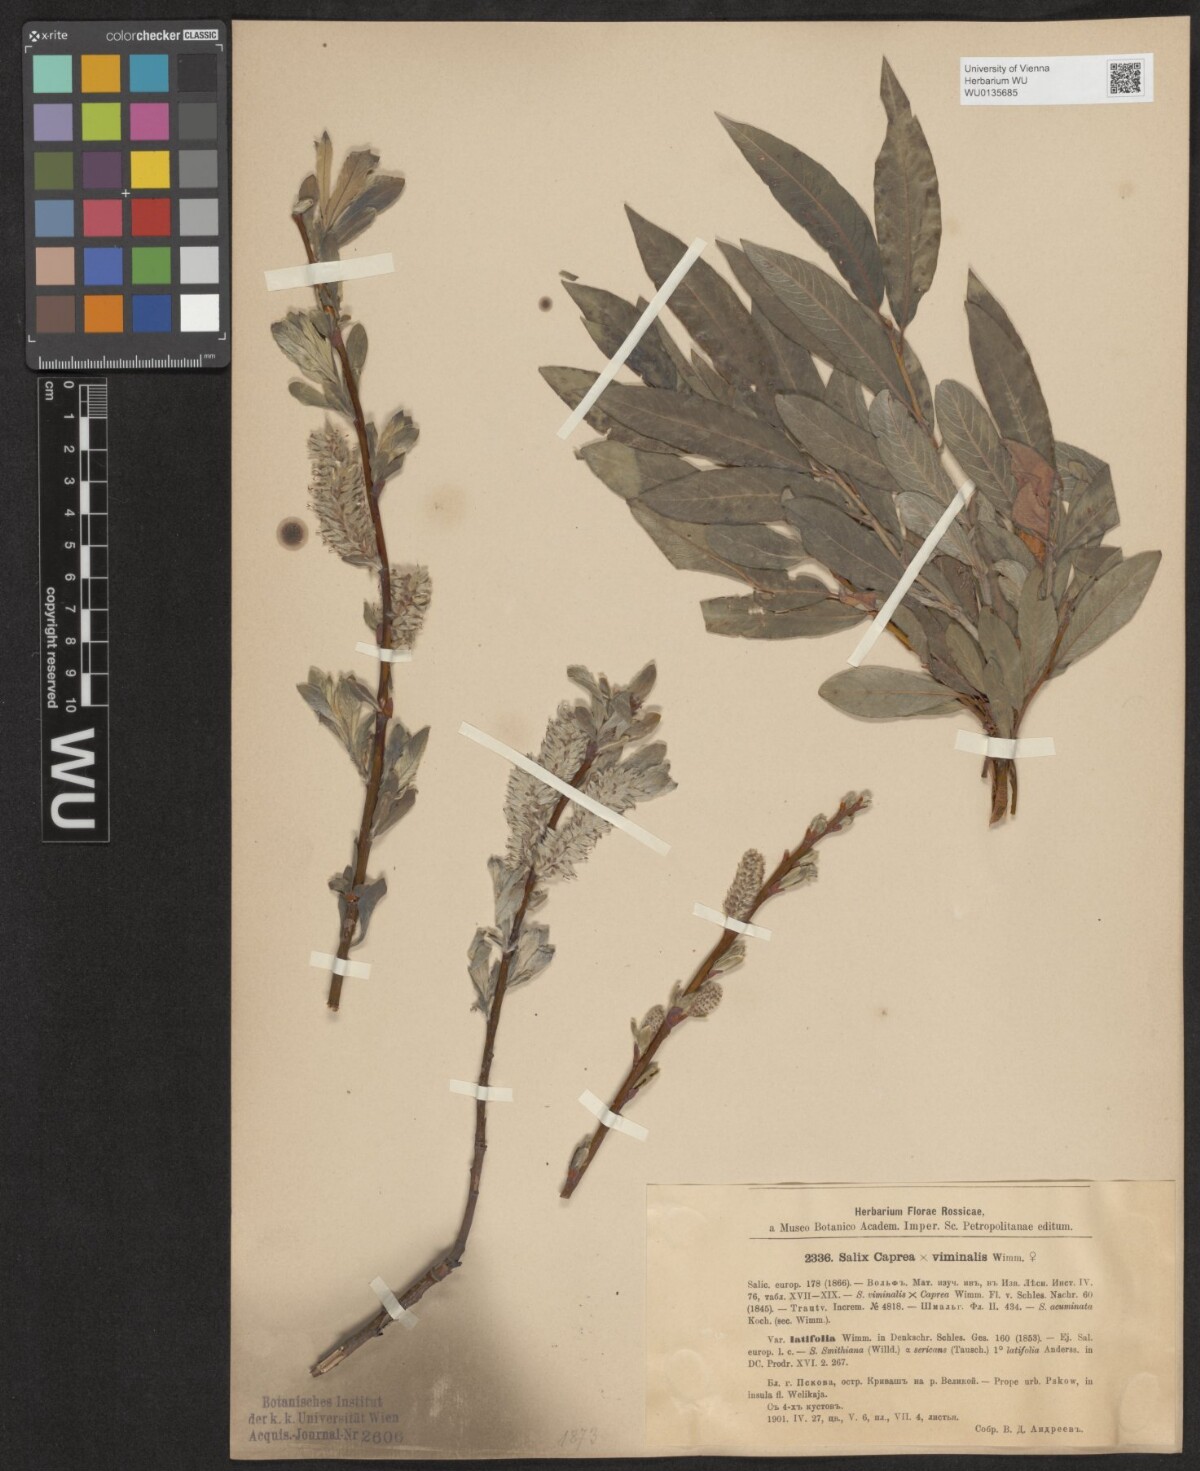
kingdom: Plantae
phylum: Tracheophyta
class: Magnoliopsida
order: Malpighiales
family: Salicaceae
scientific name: Salicaceae
